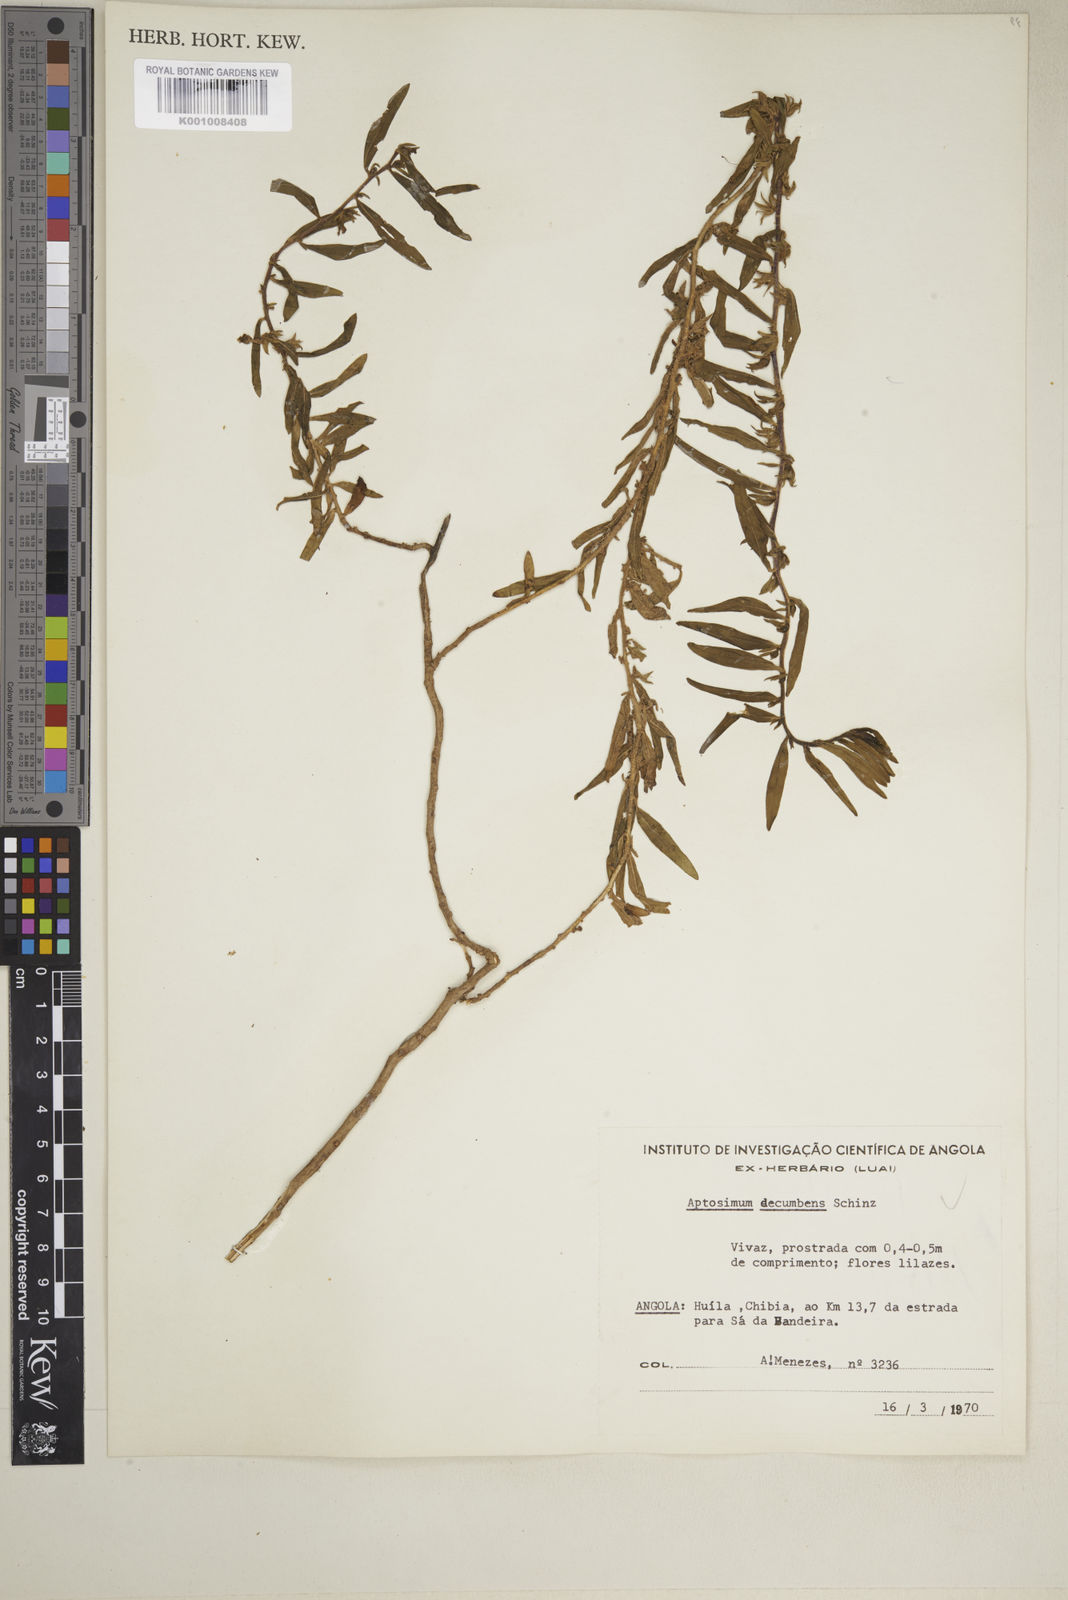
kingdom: Plantae
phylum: Tracheophyta
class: Magnoliopsida
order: Lamiales
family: Scrophulariaceae
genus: Aptosimum
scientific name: Aptosimum decumbens
